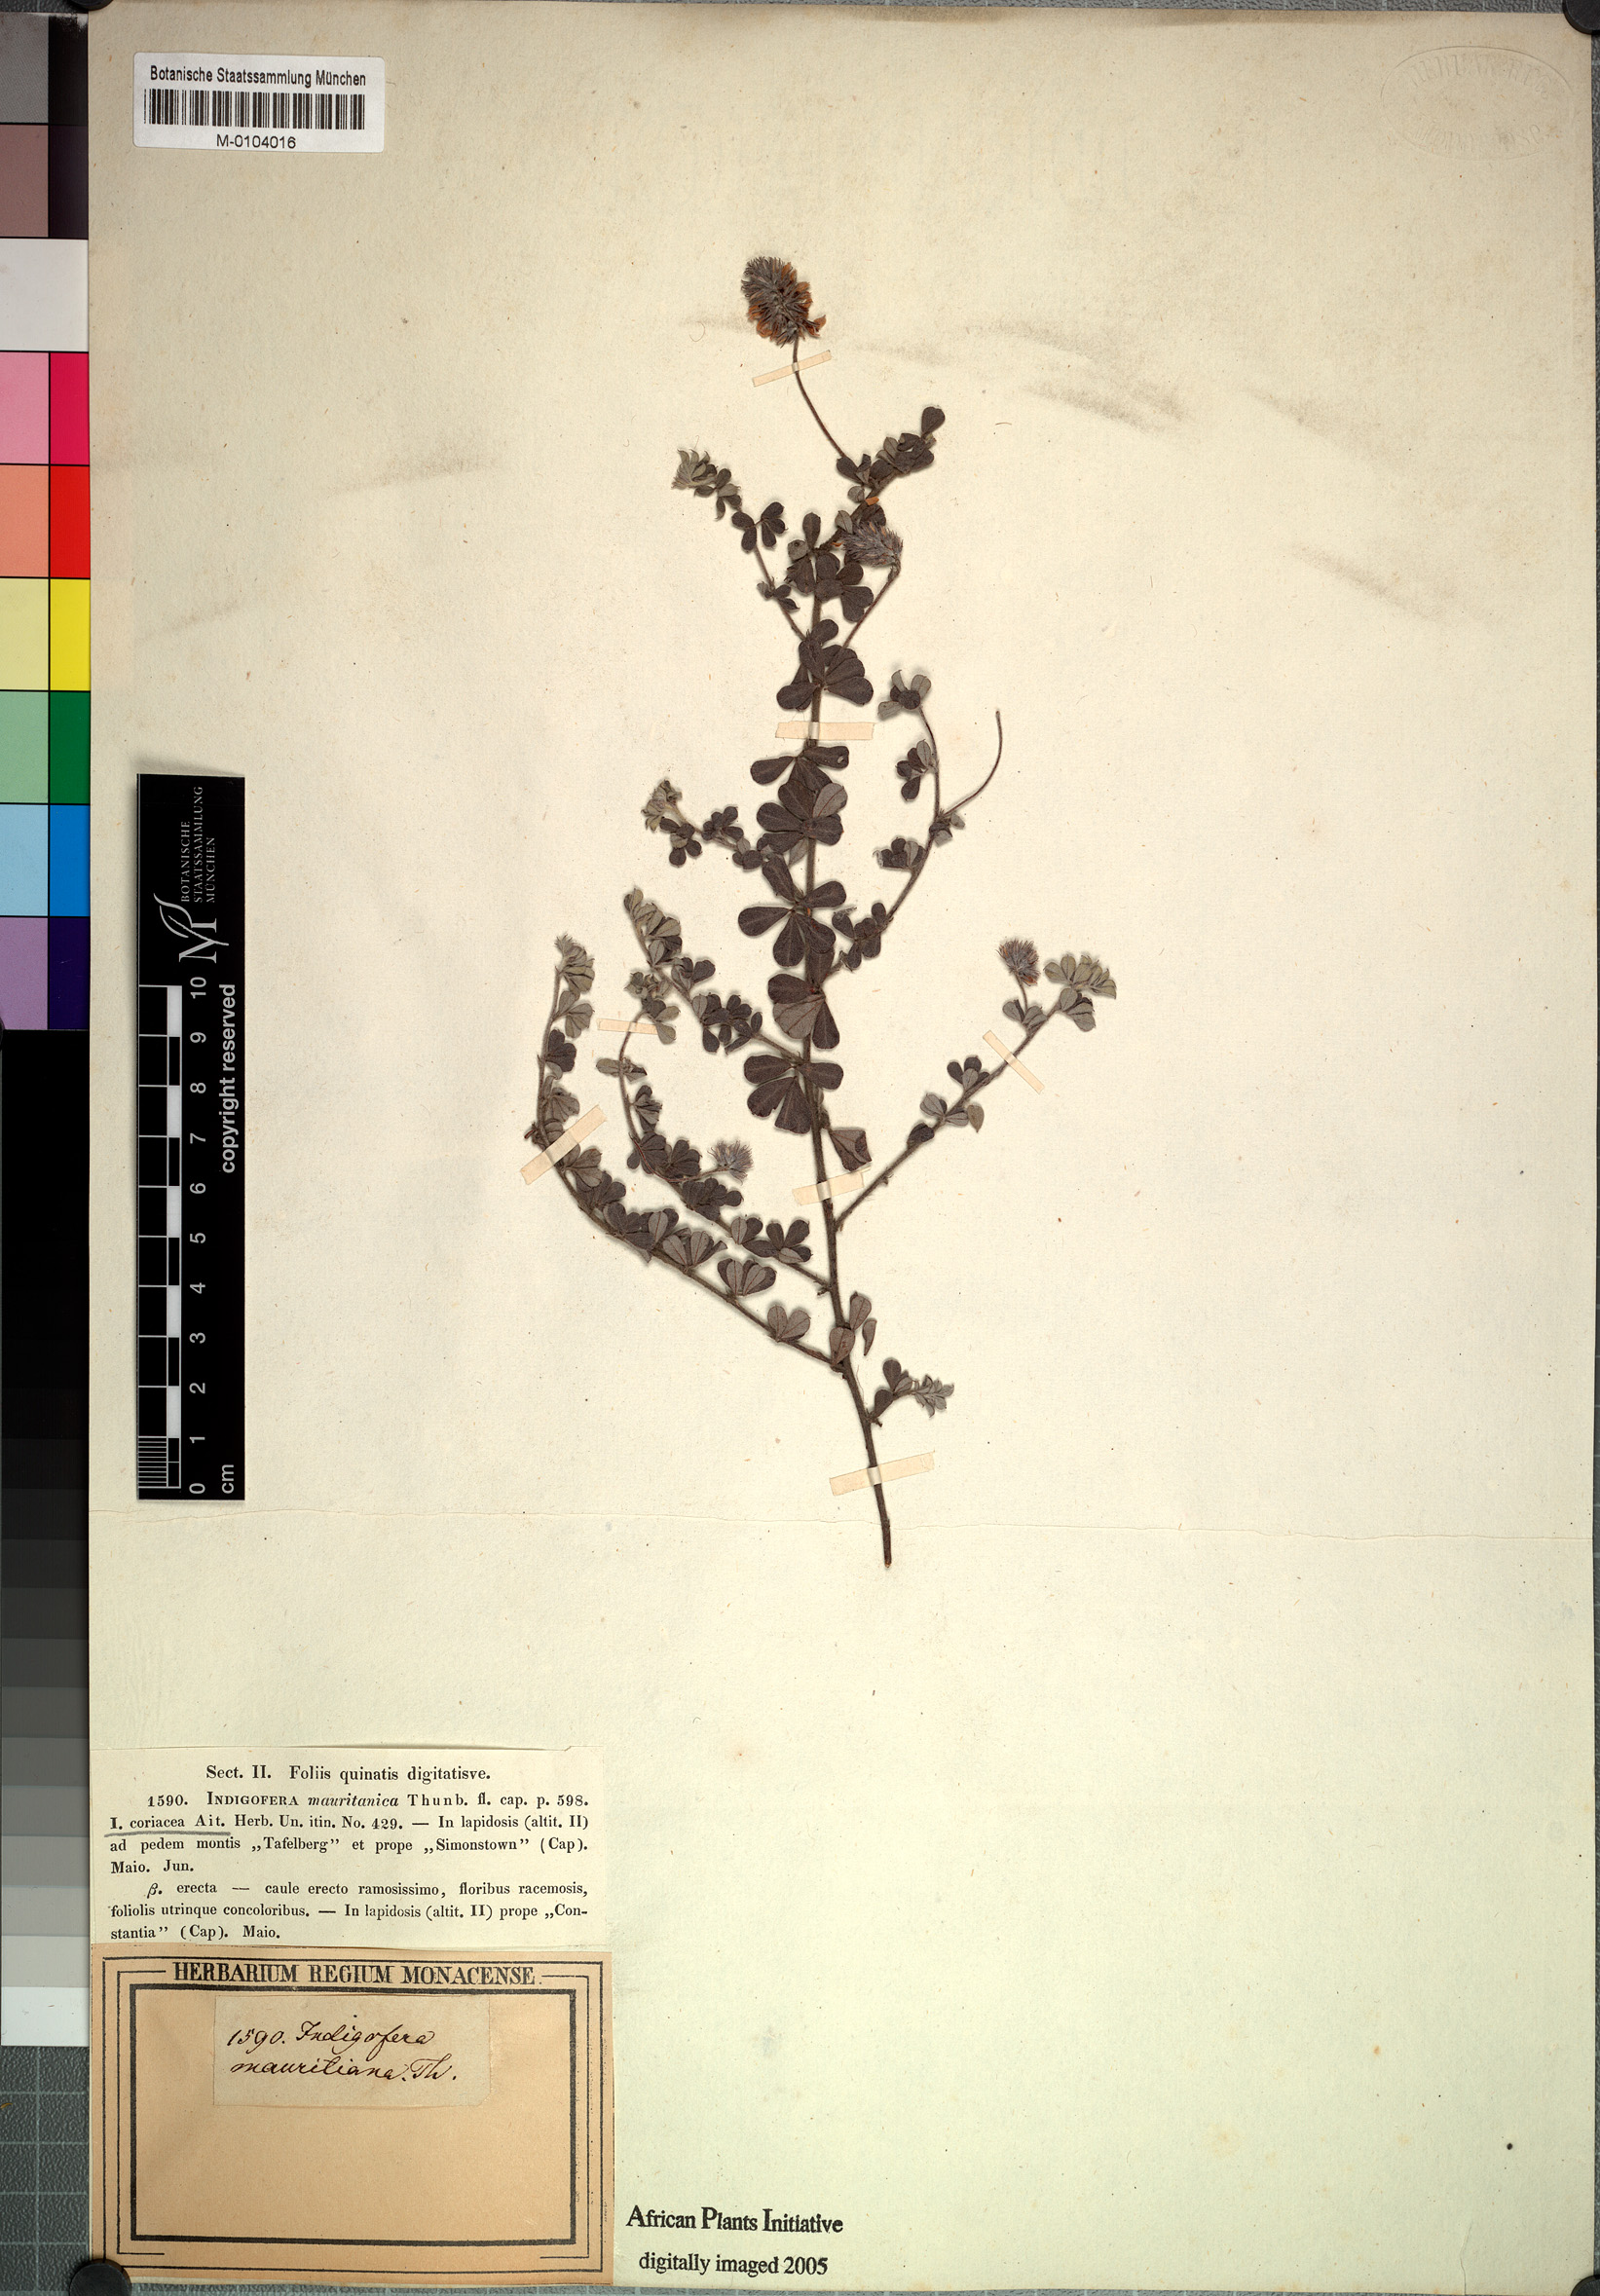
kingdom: Plantae
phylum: Tracheophyta
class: Magnoliopsida
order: Fabales
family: Fabaceae
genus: Indigofera
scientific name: Indigofera mauritanica
